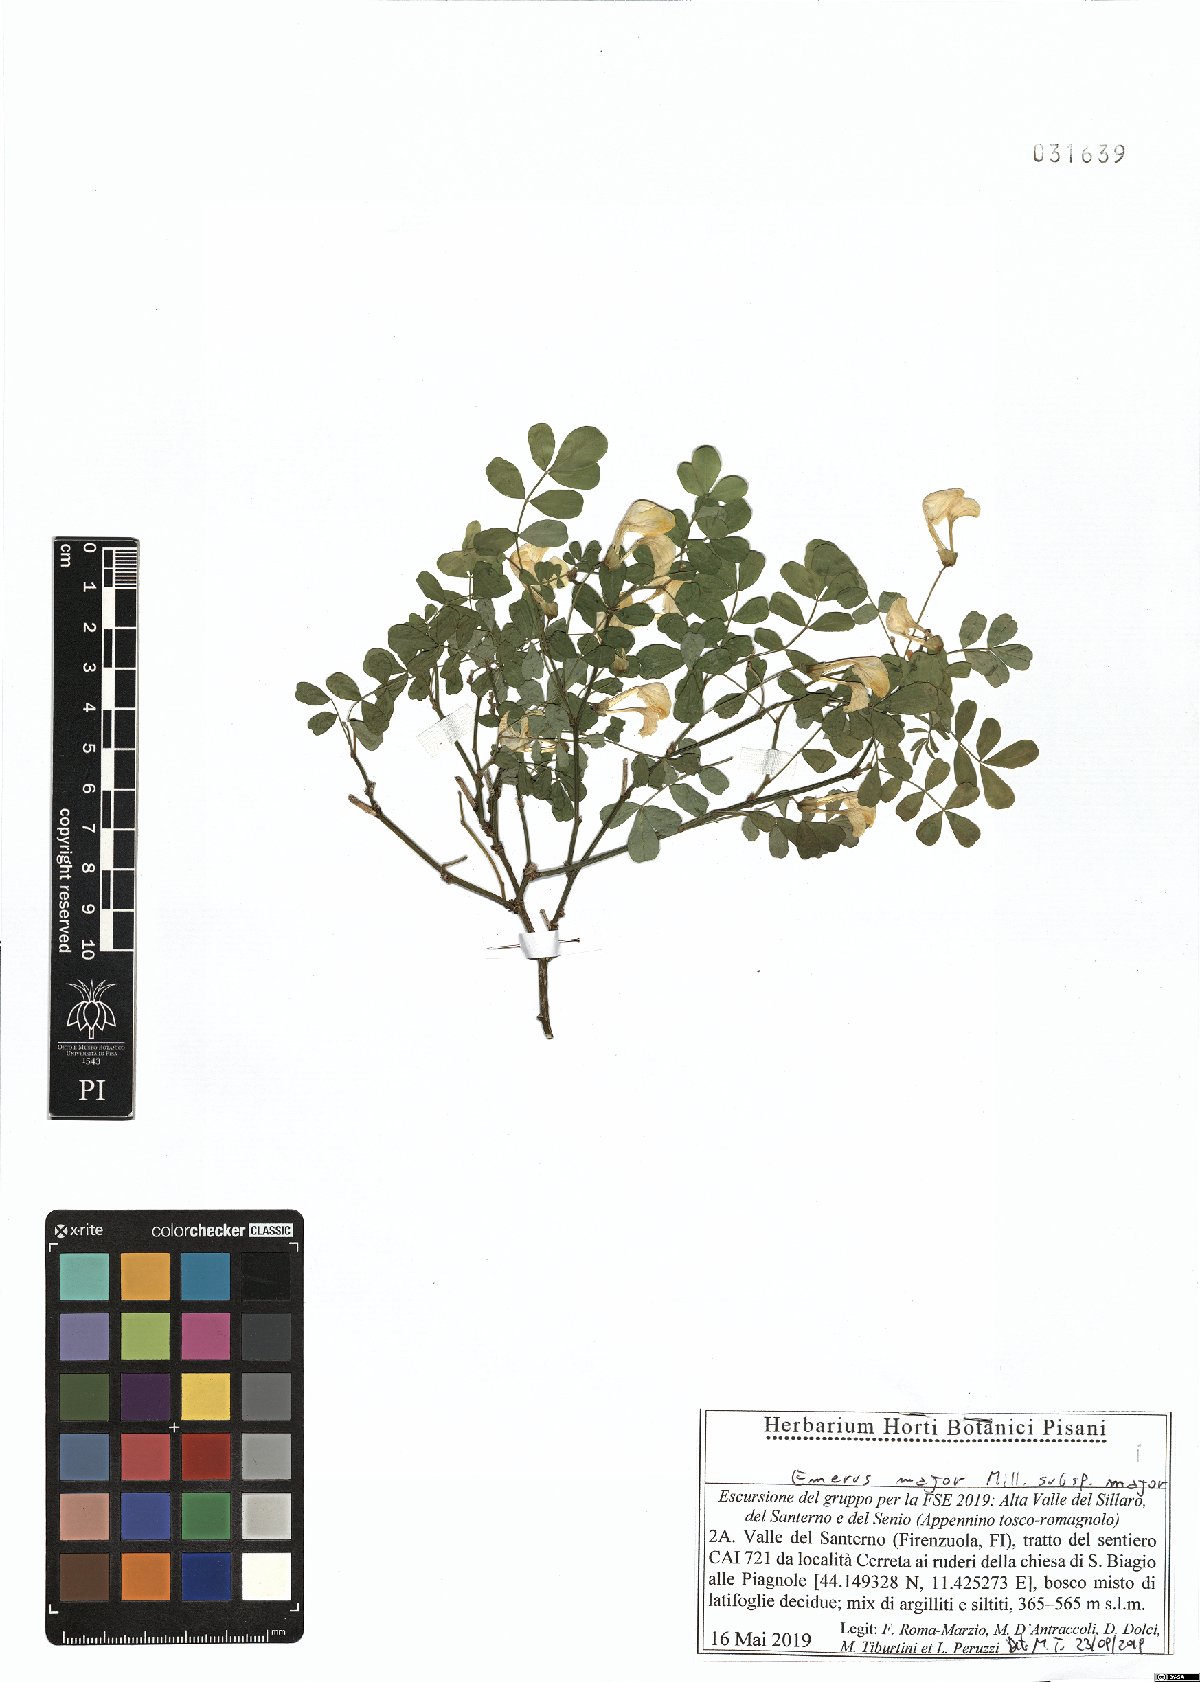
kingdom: Plantae
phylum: Tracheophyta
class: Magnoliopsida
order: Fabales
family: Fabaceae
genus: Hippocrepis
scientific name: Hippocrepis emerus
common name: Scorpion senna
